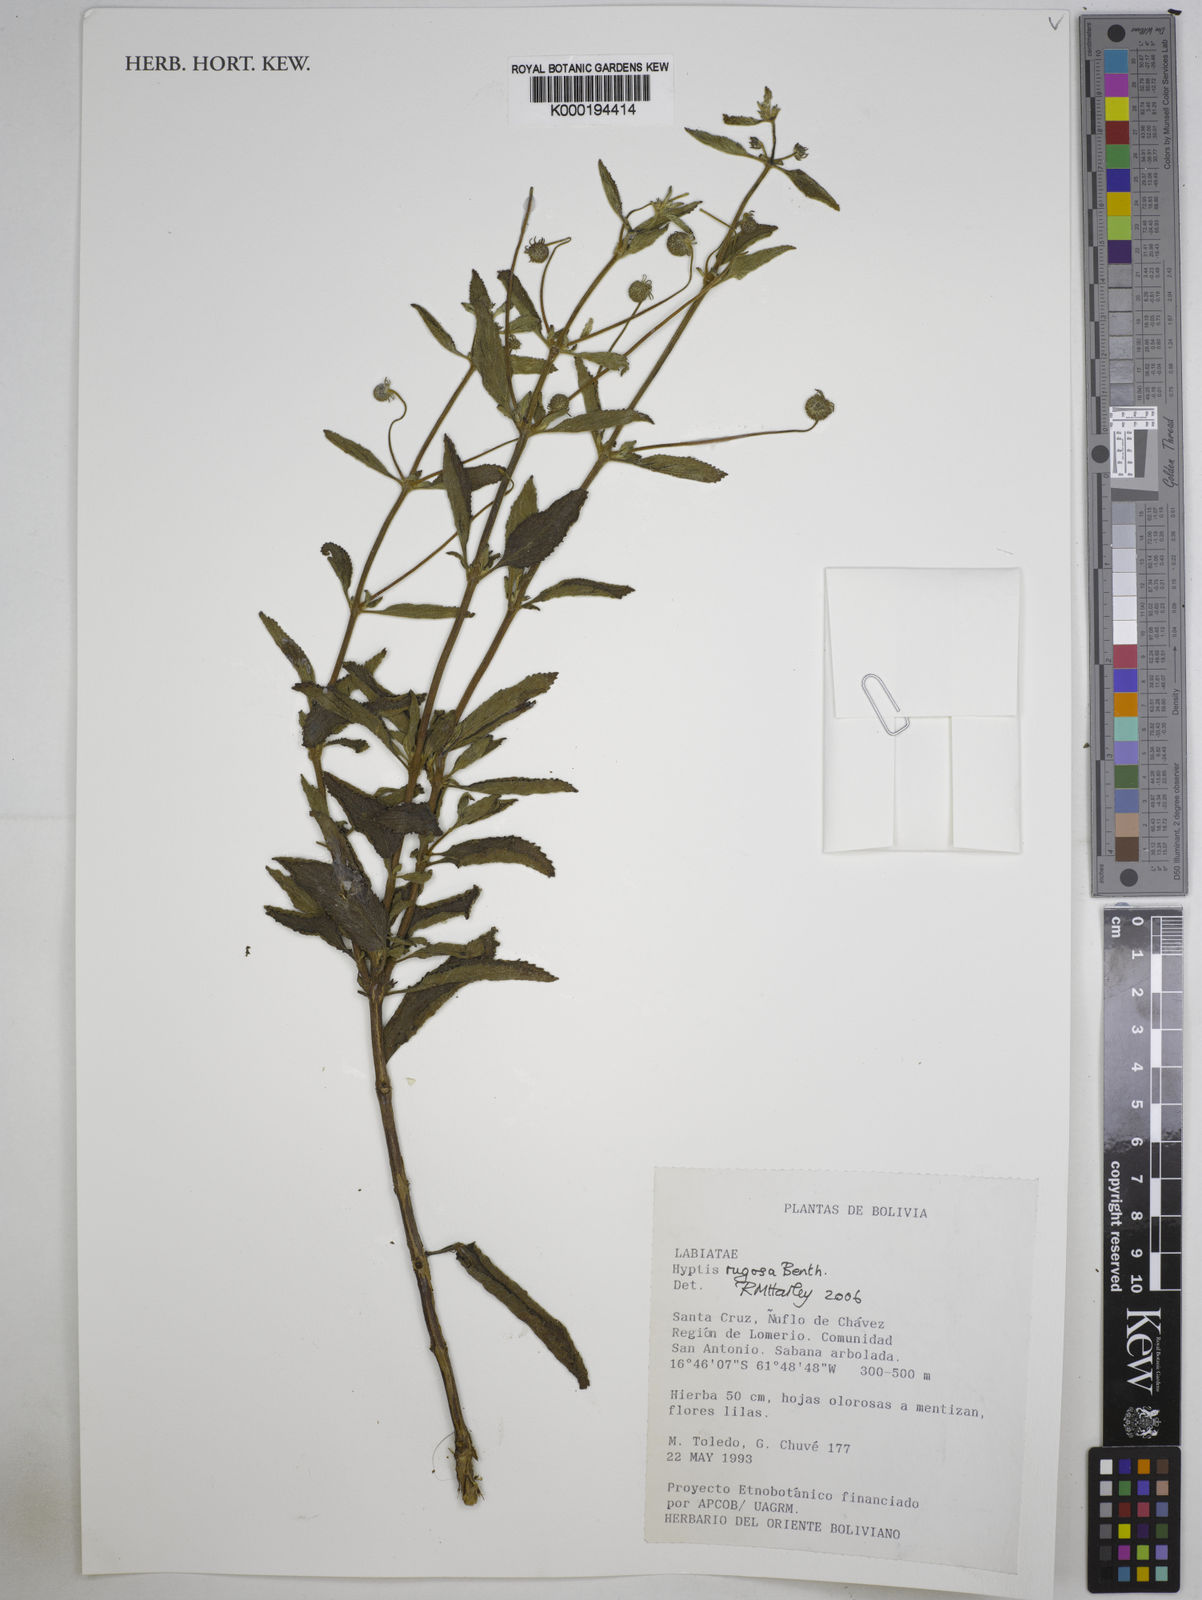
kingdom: Plantae
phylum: Tracheophyta
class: Magnoliopsida
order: Lamiales
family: Lamiaceae
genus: Cyanocephalus
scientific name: Cyanocephalus rugosus
